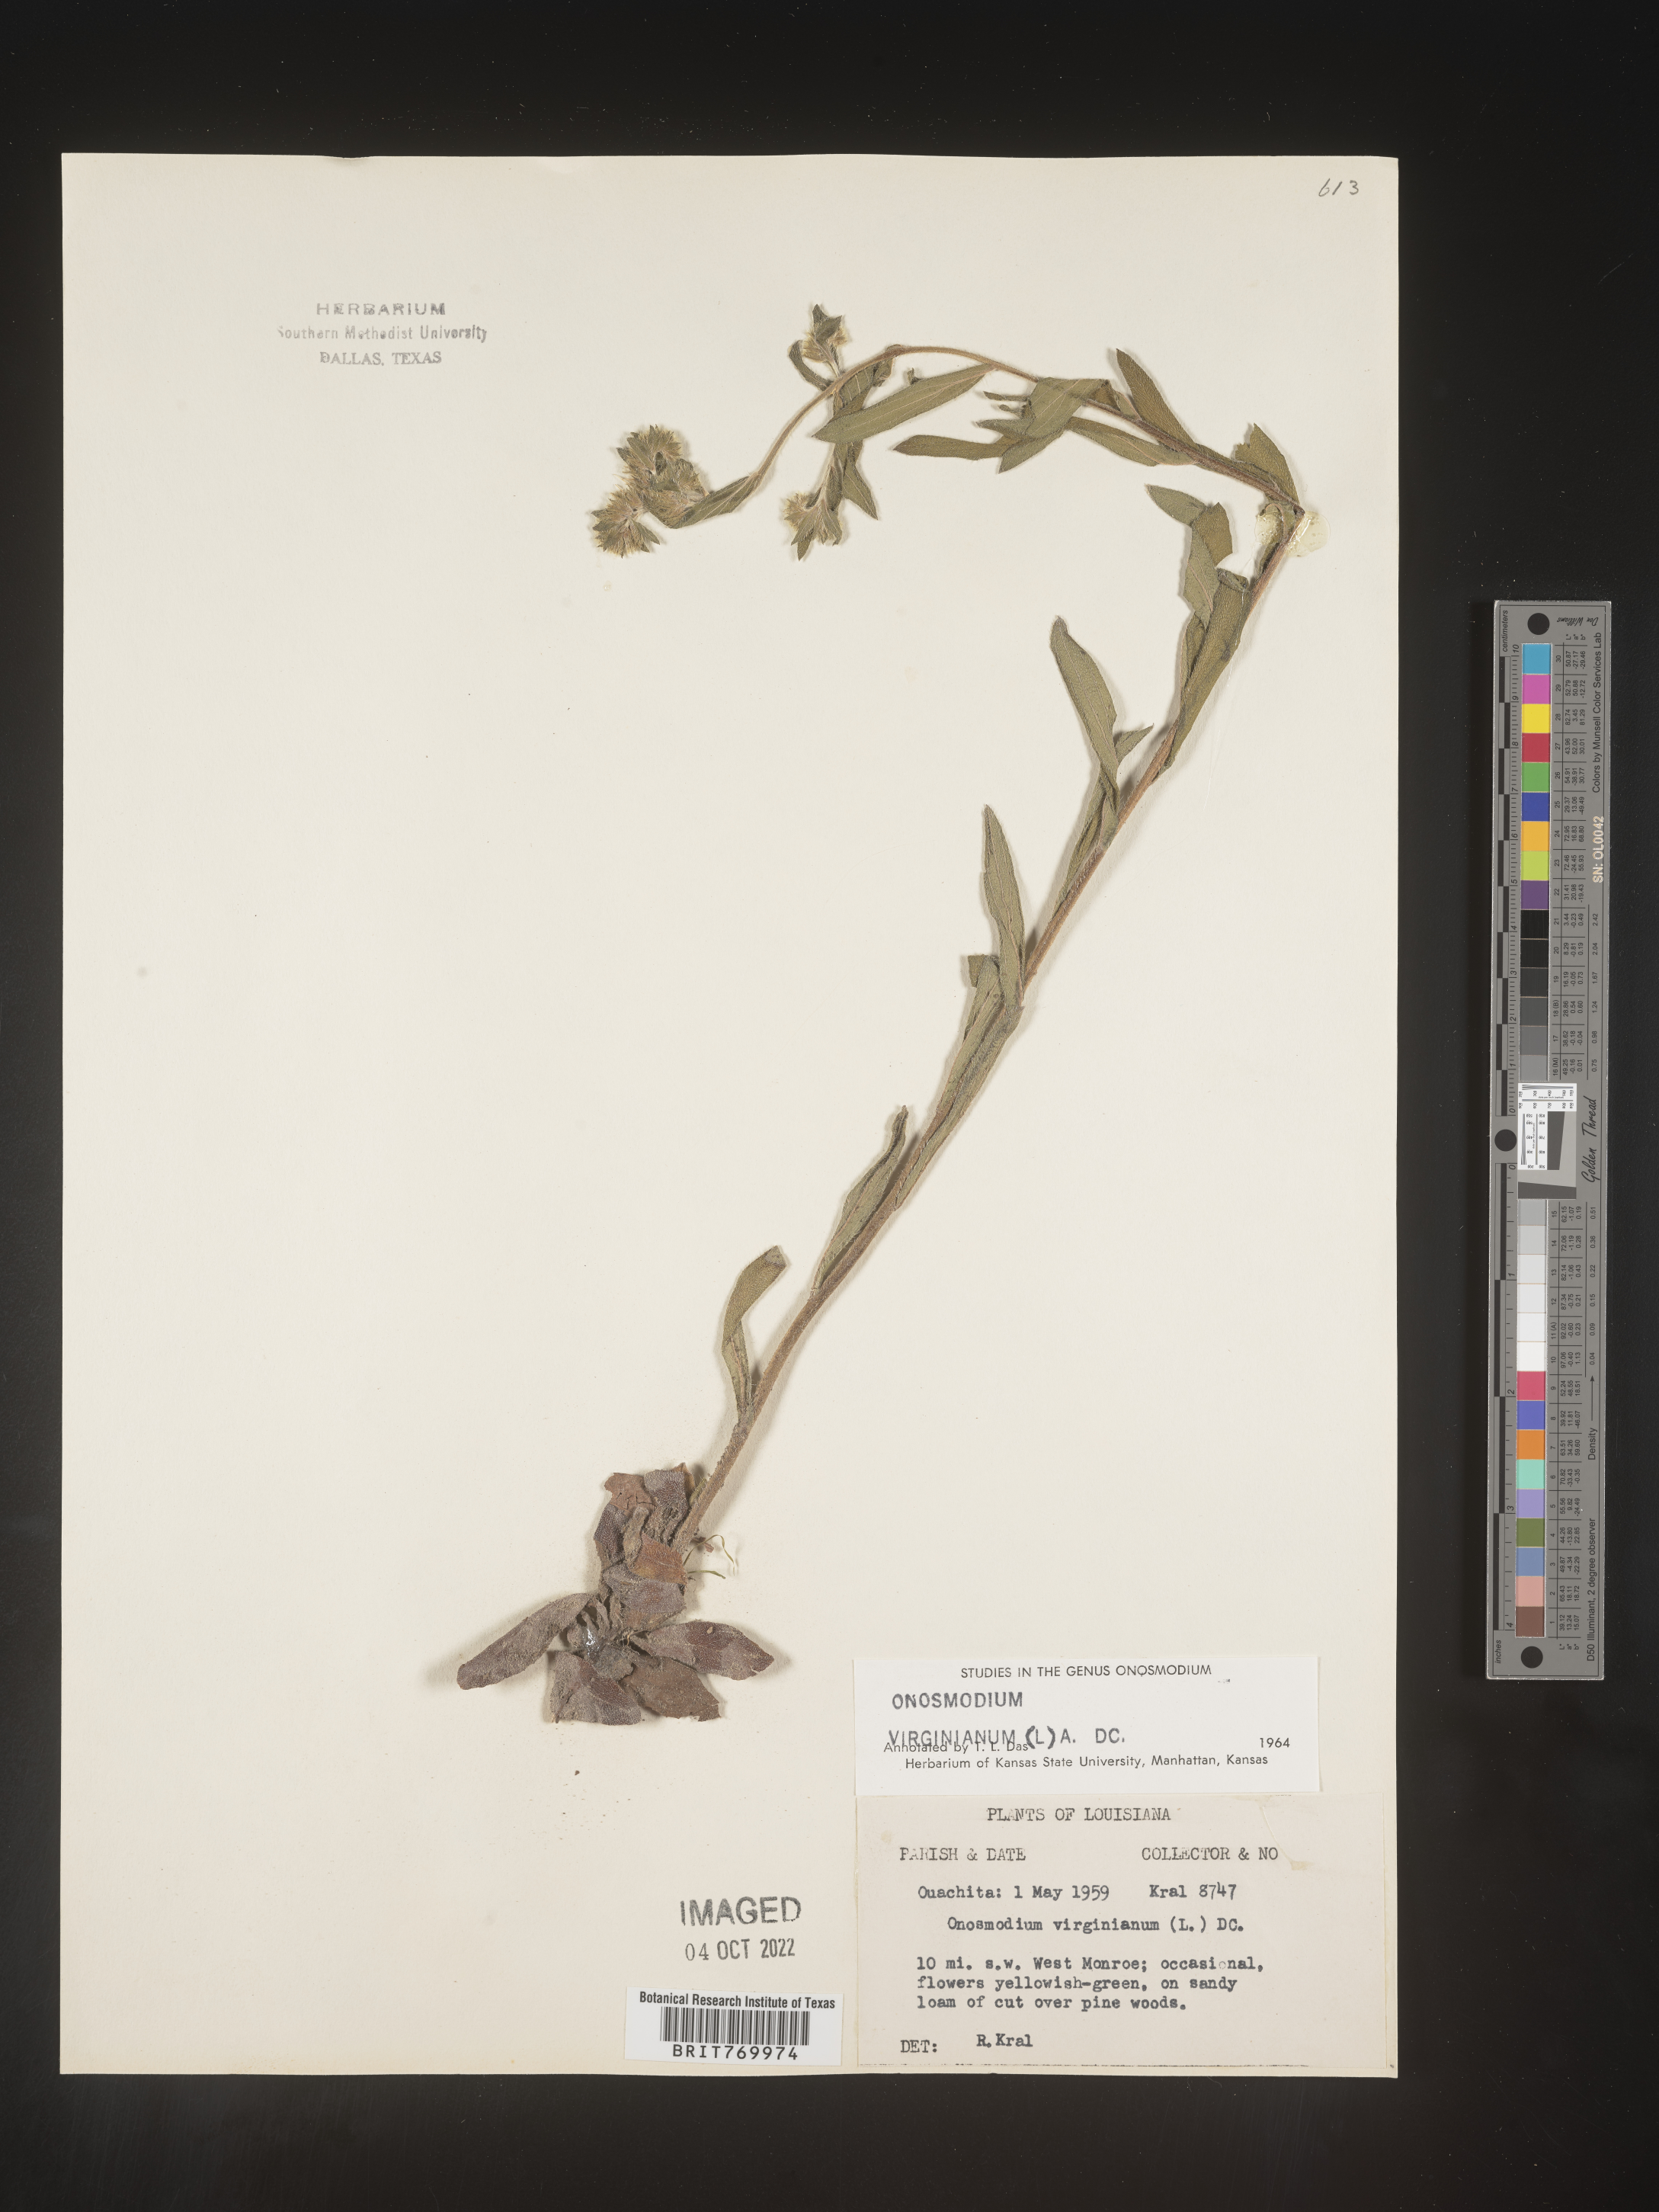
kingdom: Plantae
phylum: Tracheophyta
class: Magnoliopsida
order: Boraginales
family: Boraginaceae
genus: Lithospermum
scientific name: Lithospermum virginianum
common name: Eastern false gromwell
